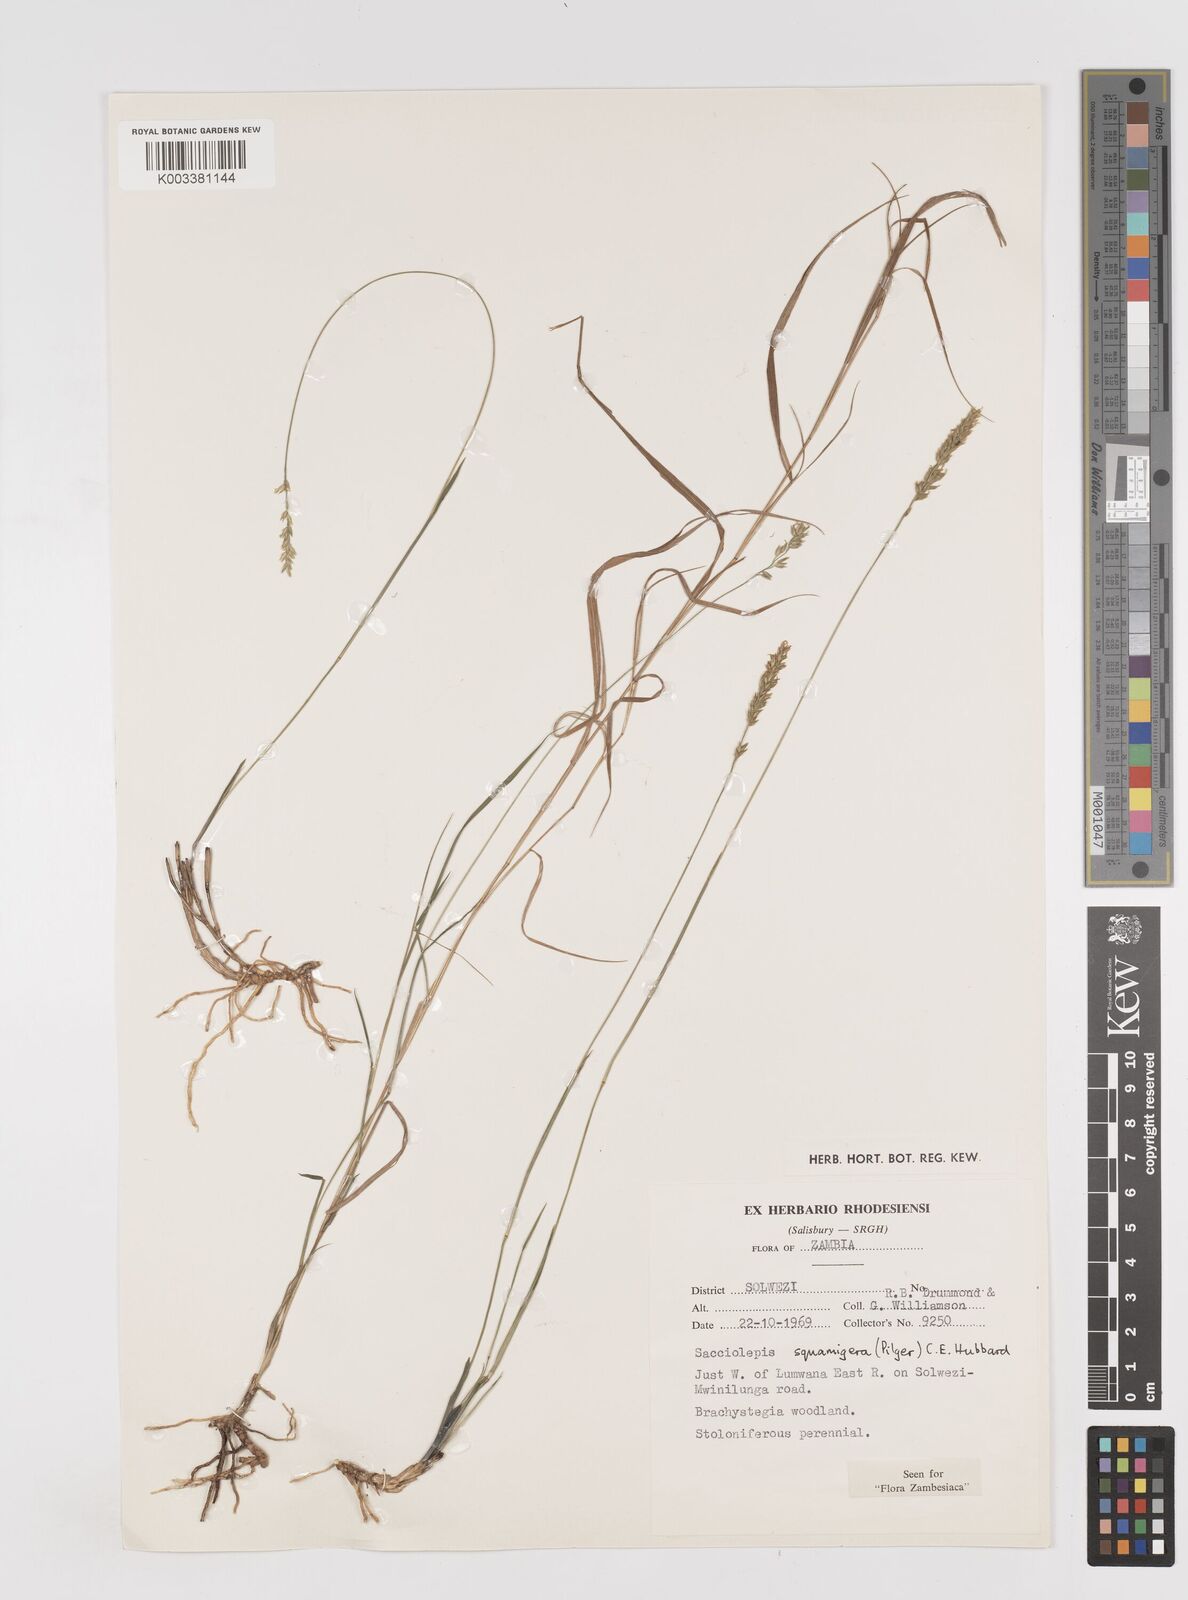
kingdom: Plantae
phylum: Tracheophyta
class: Liliopsida
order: Poales
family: Poaceae
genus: Sacciolepis
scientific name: Sacciolepis catumbensis
